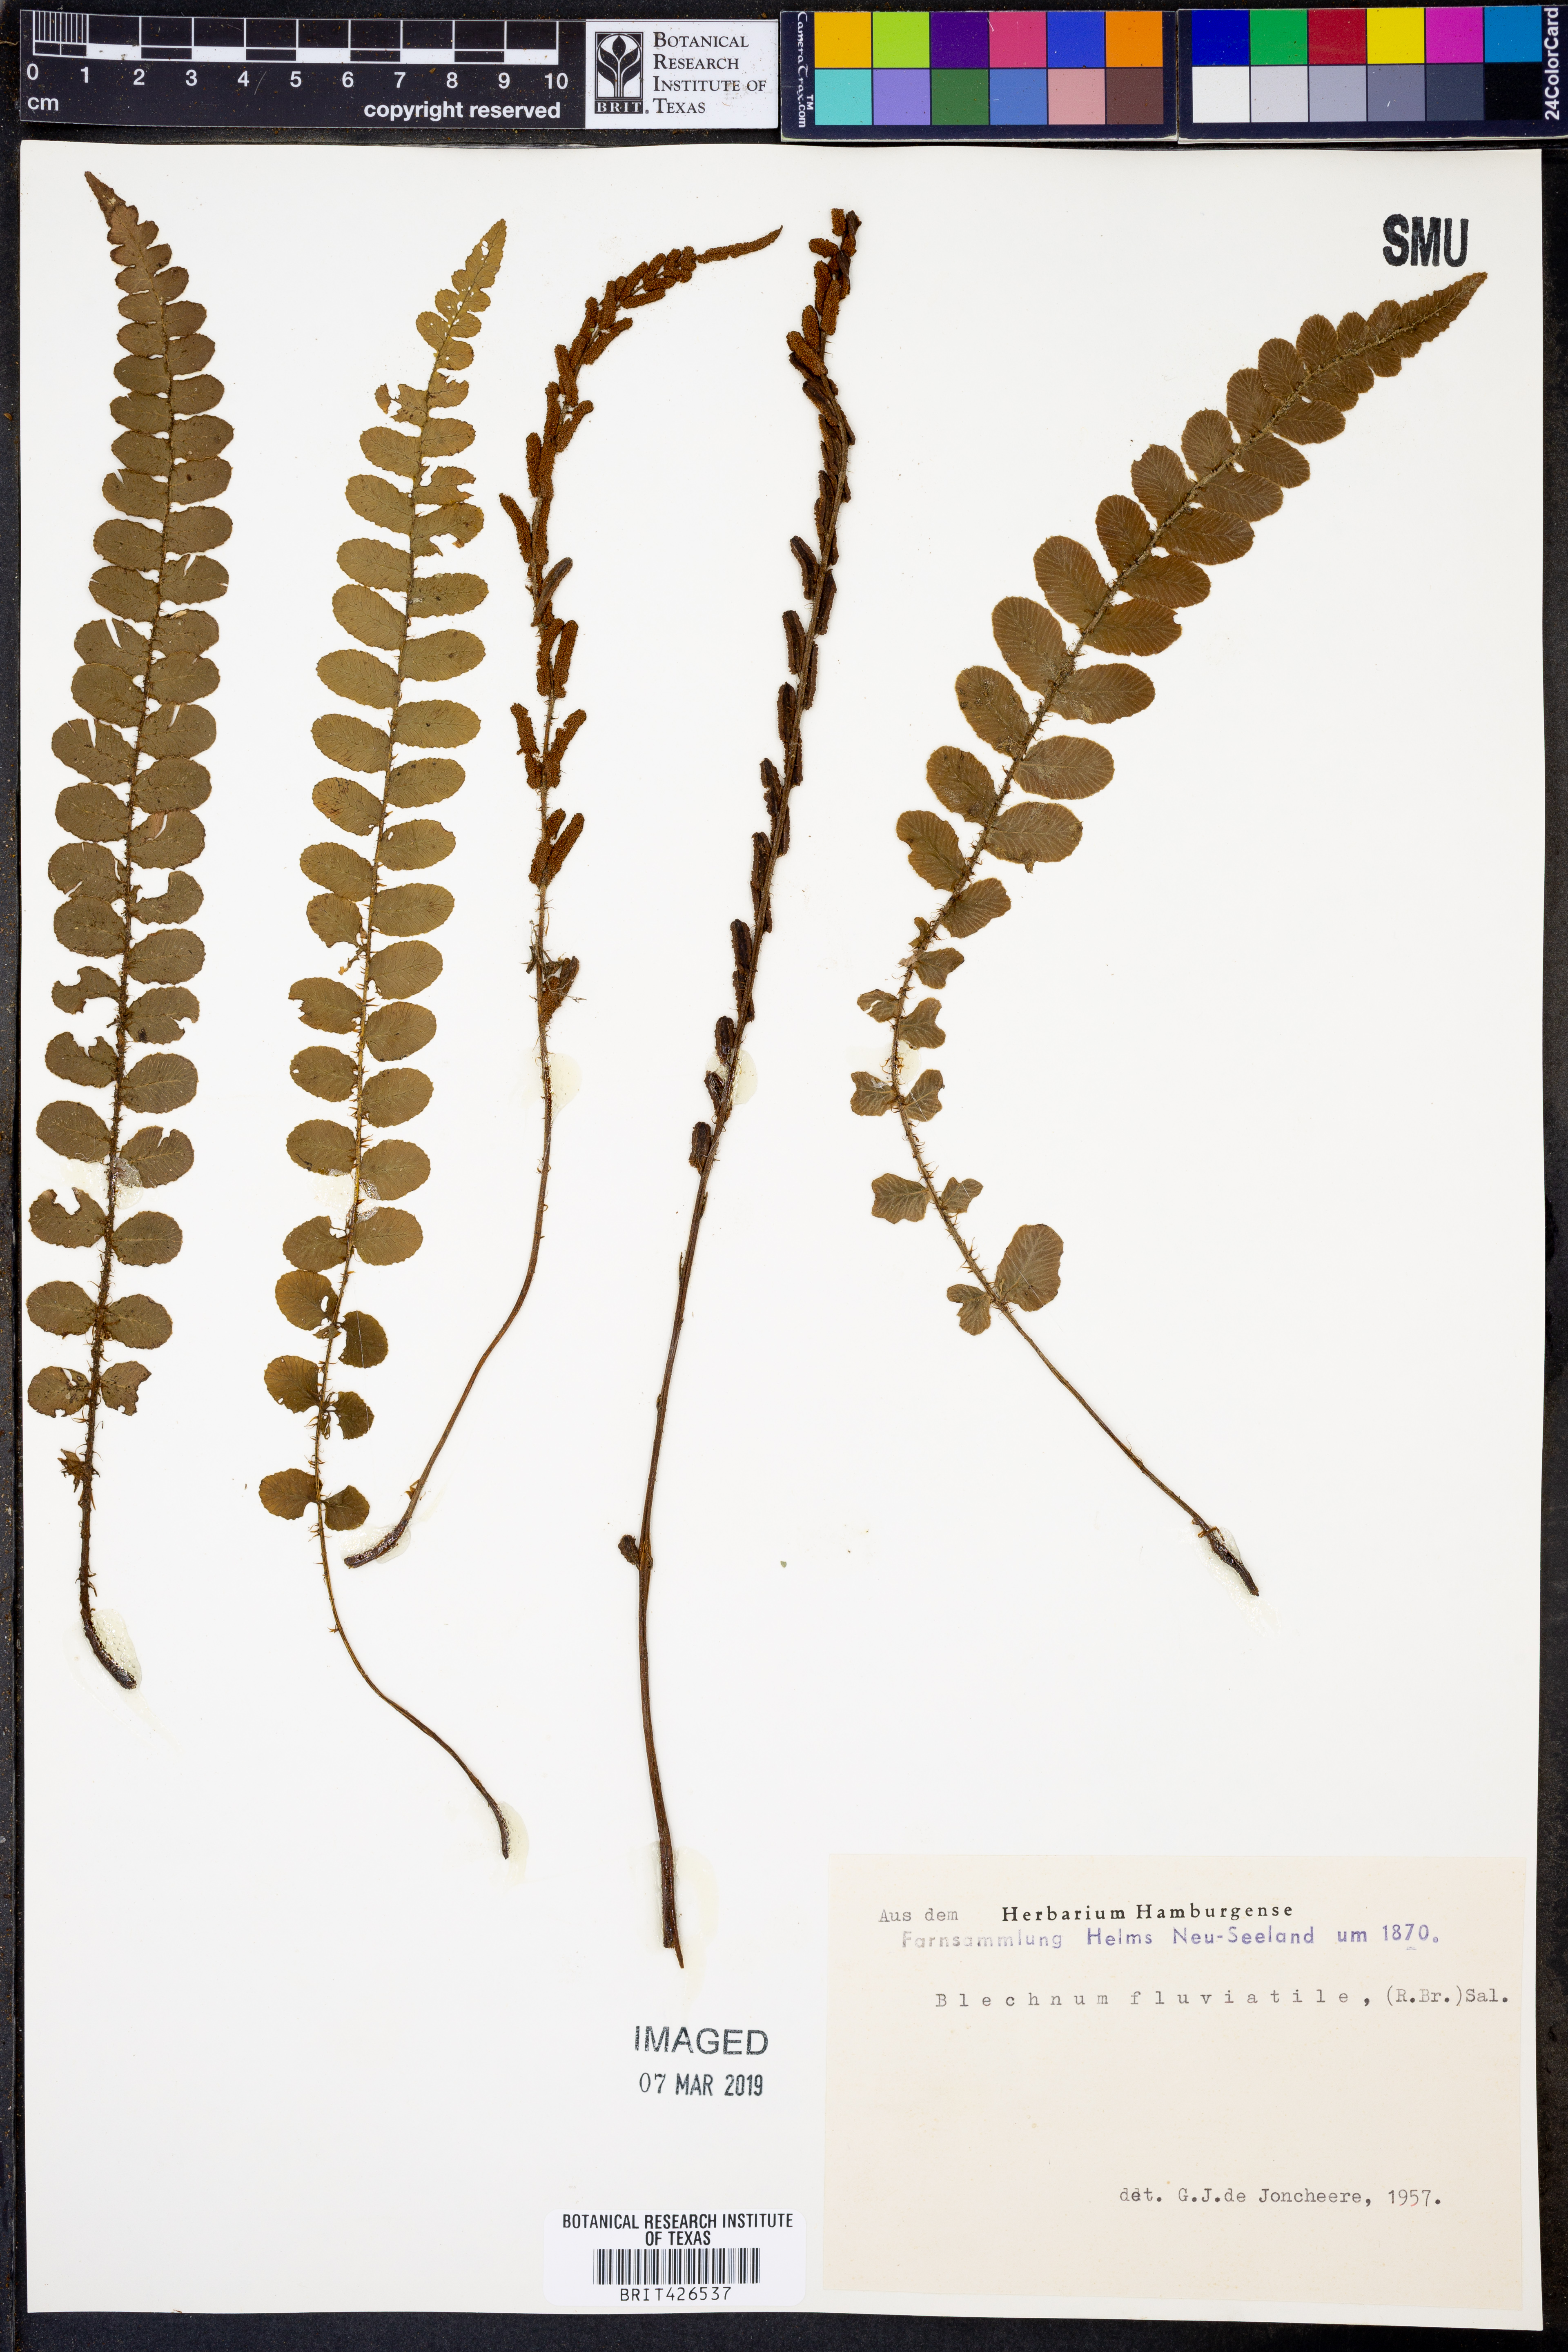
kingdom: Plantae
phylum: Tracheophyta
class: Polypodiopsida
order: Polypodiales
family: Blechnaceae
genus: Cranfillia
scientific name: Cranfillia fluviatilis
